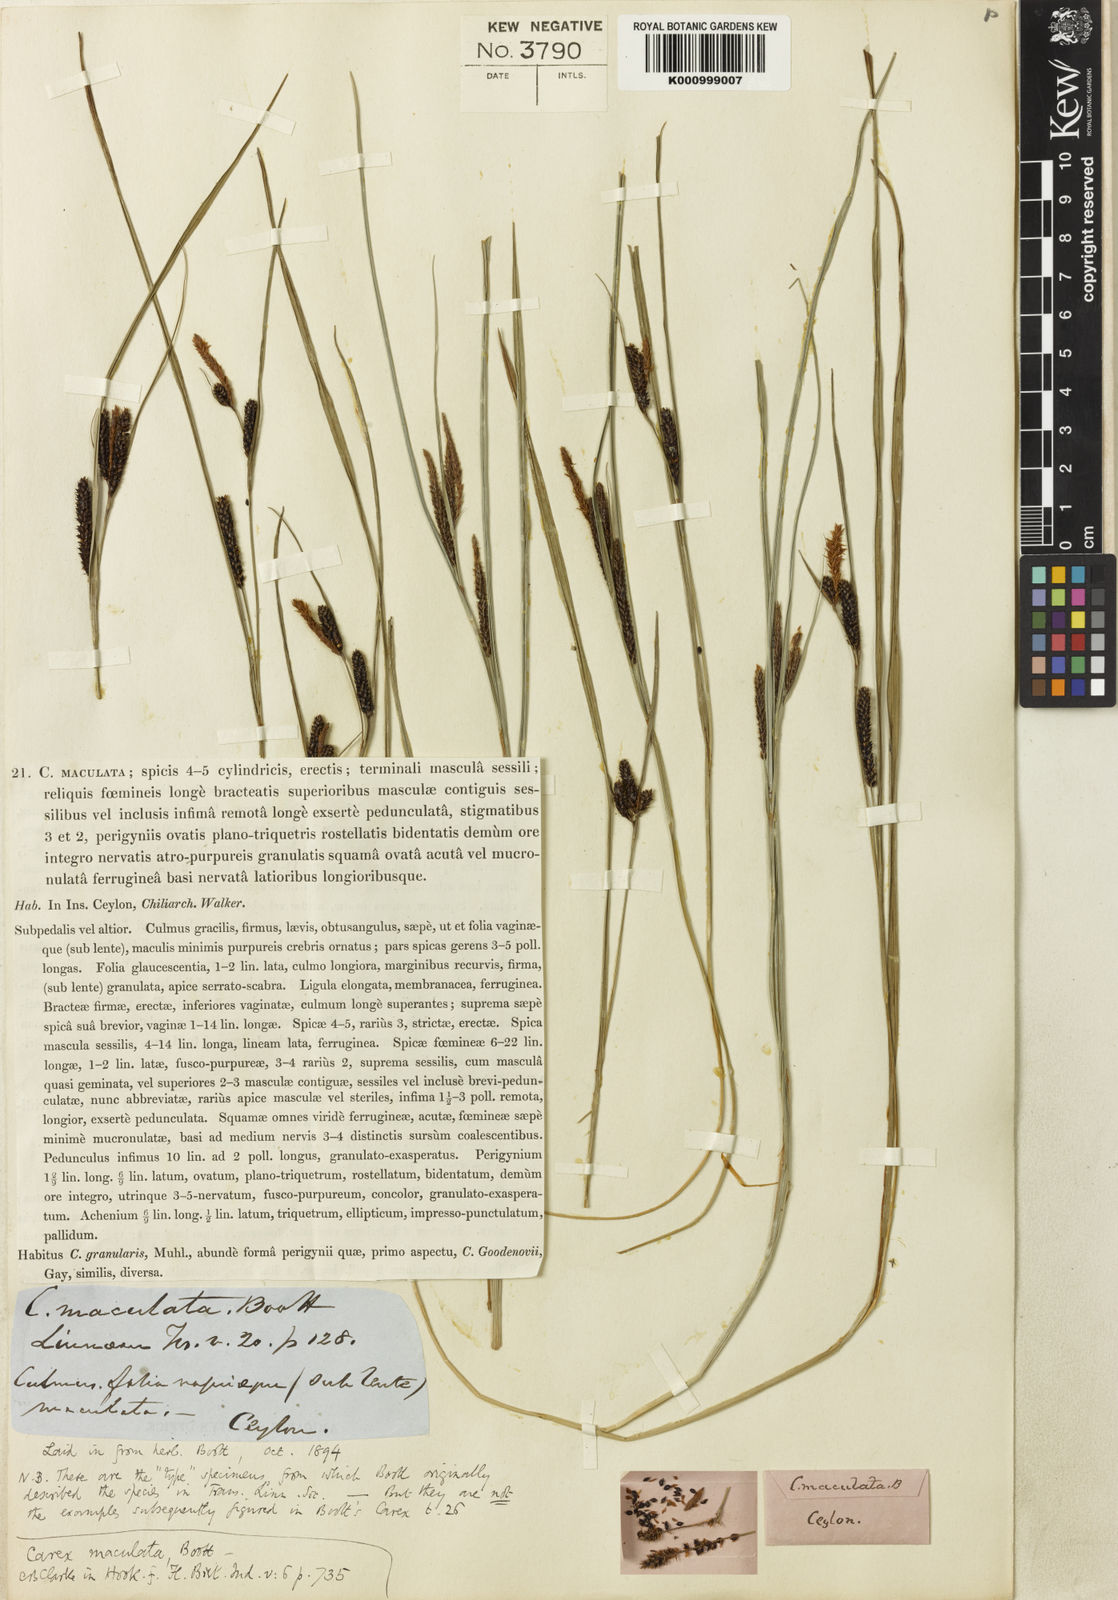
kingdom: Plantae
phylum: Tracheophyta
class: Liliopsida
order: Poales
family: Cyperaceae
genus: Carex
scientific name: Carex maculata
